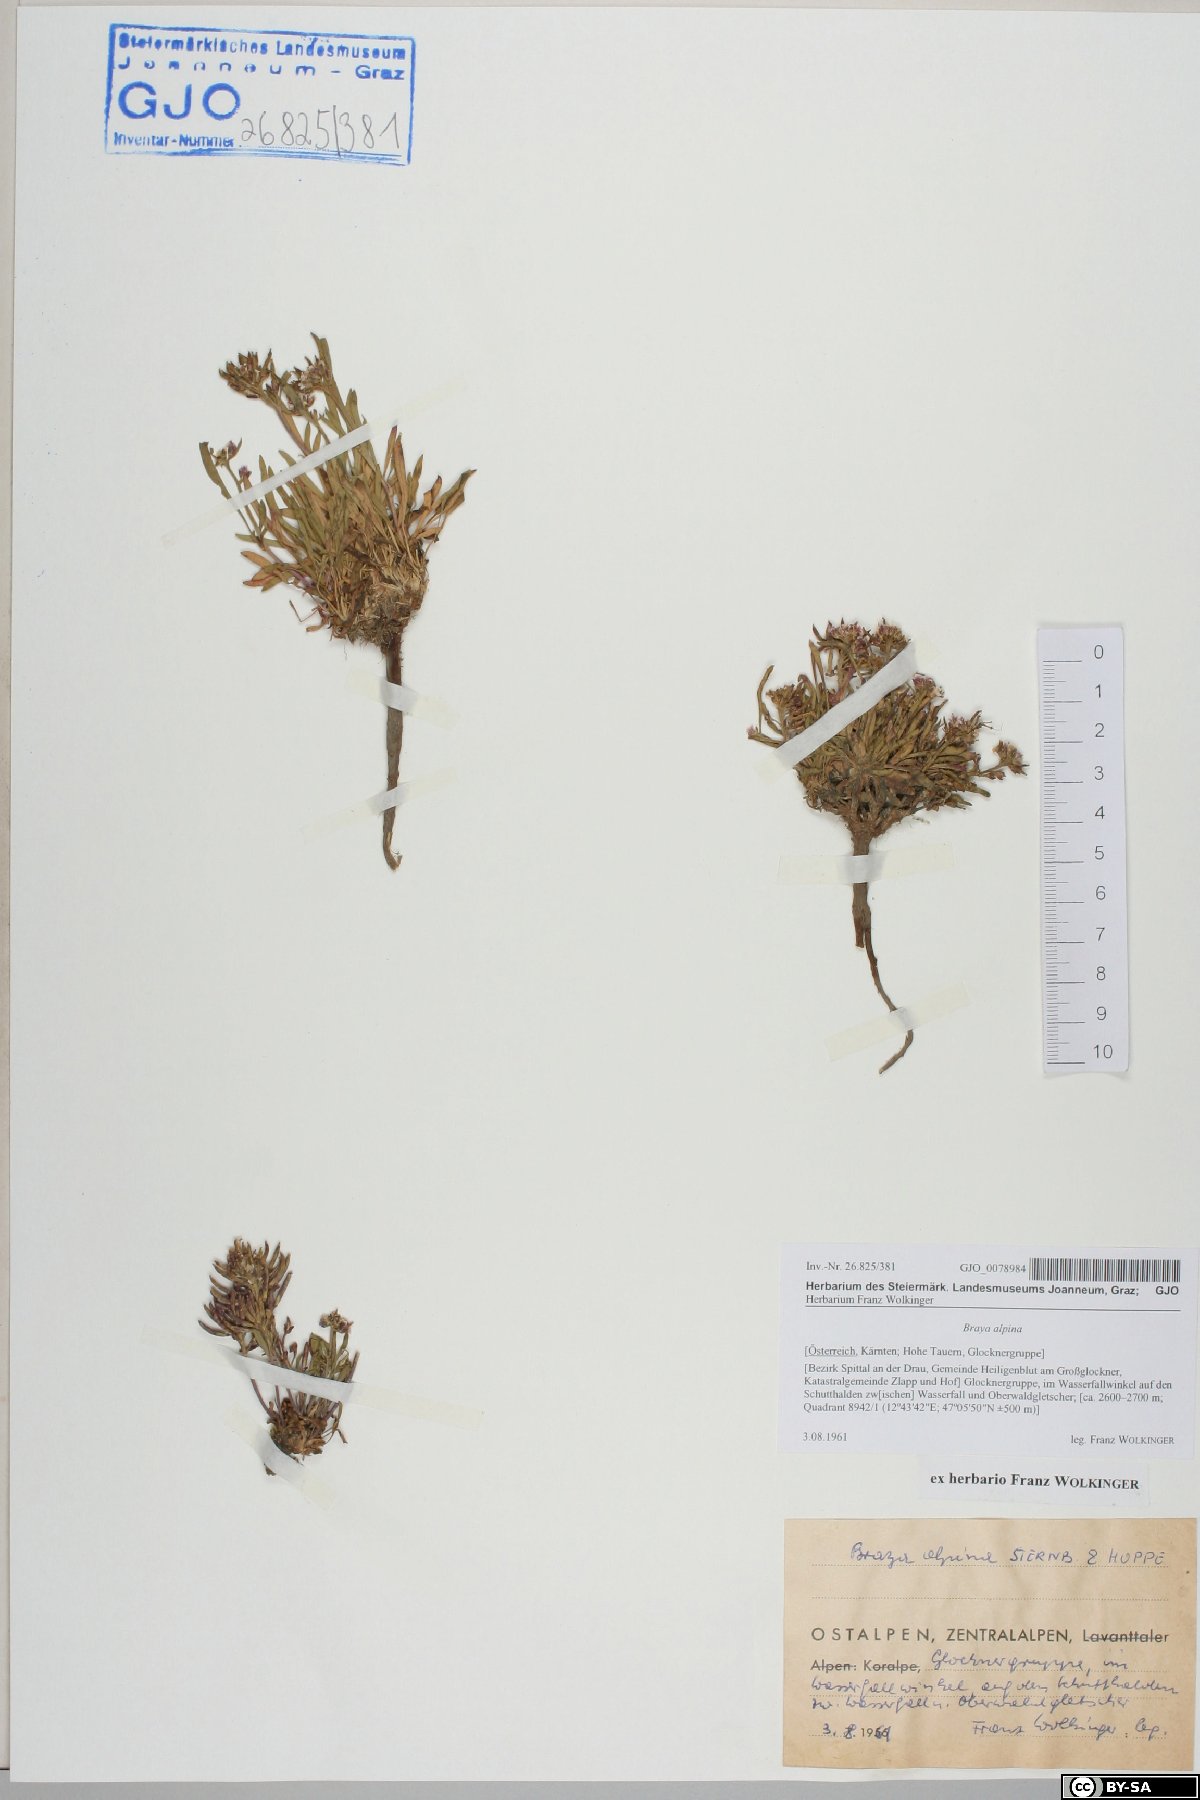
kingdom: Plantae
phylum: Tracheophyta
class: Magnoliopsida
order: Brassicales
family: Brassicaceae
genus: Braya
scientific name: Braya alpina
